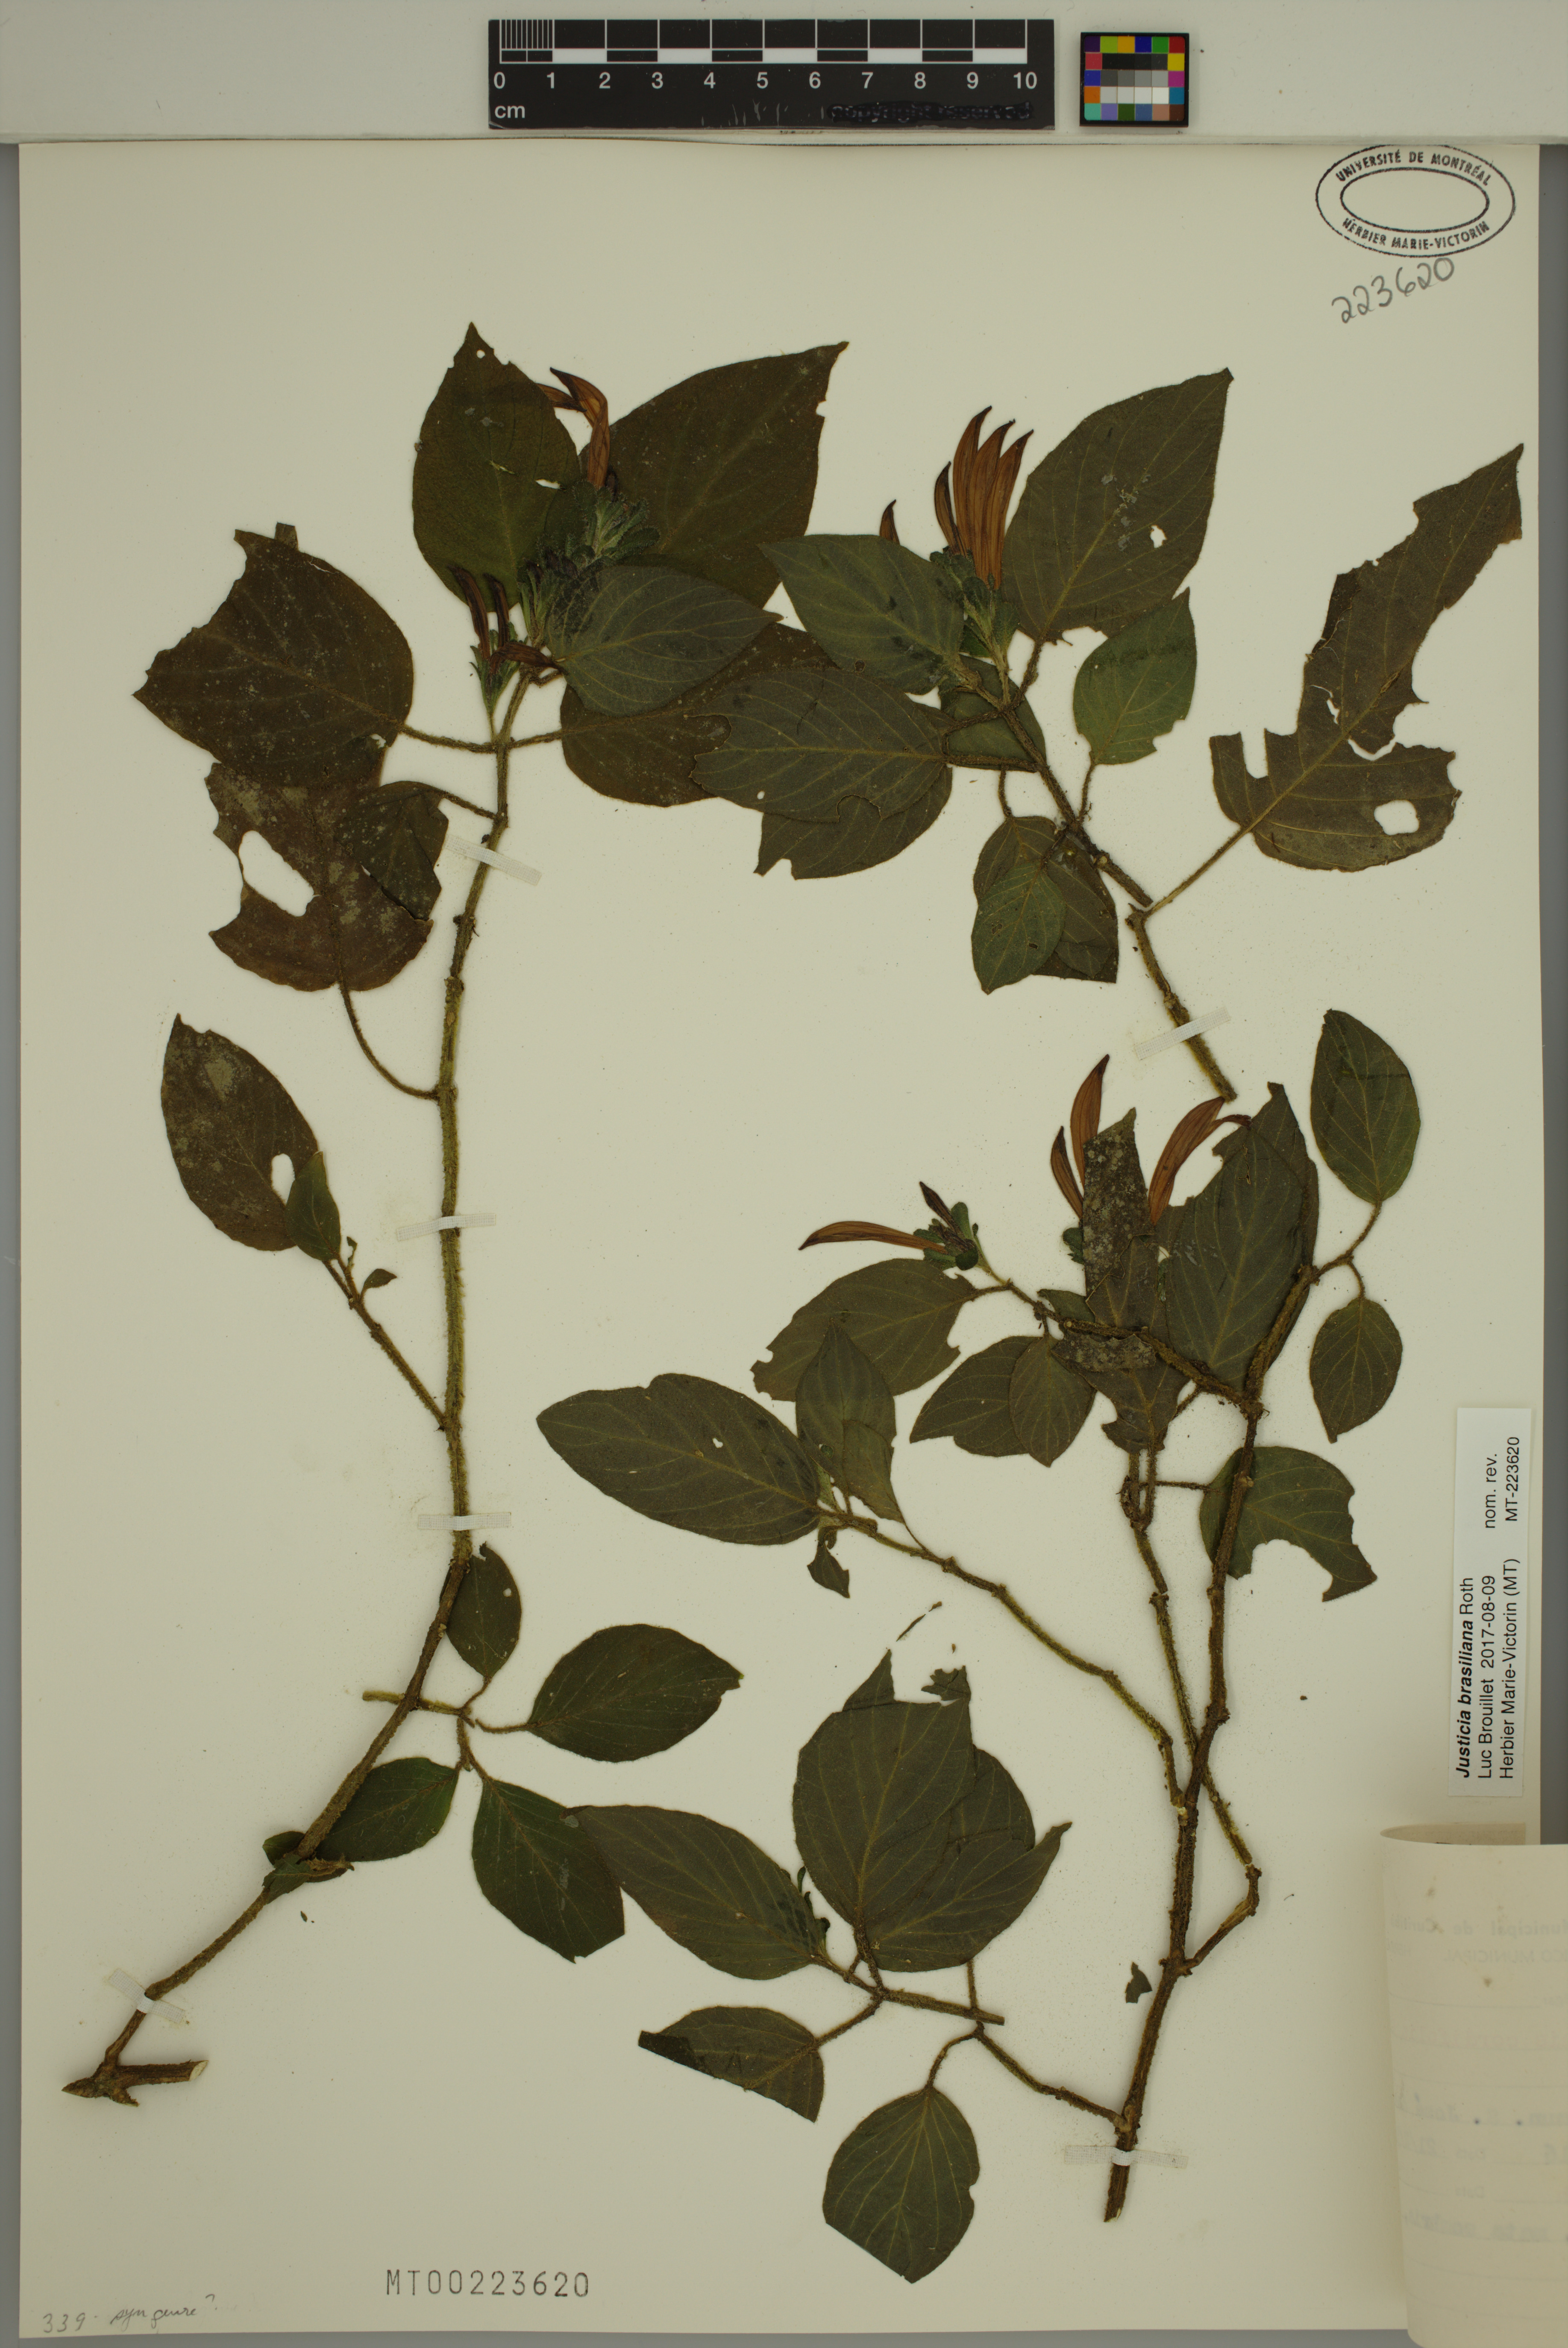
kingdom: Plantae
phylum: Tracheophyta
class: Magnoliopsida
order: Lamiales
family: Acanthaceae
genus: Justicia
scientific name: Justicia brasiliana
